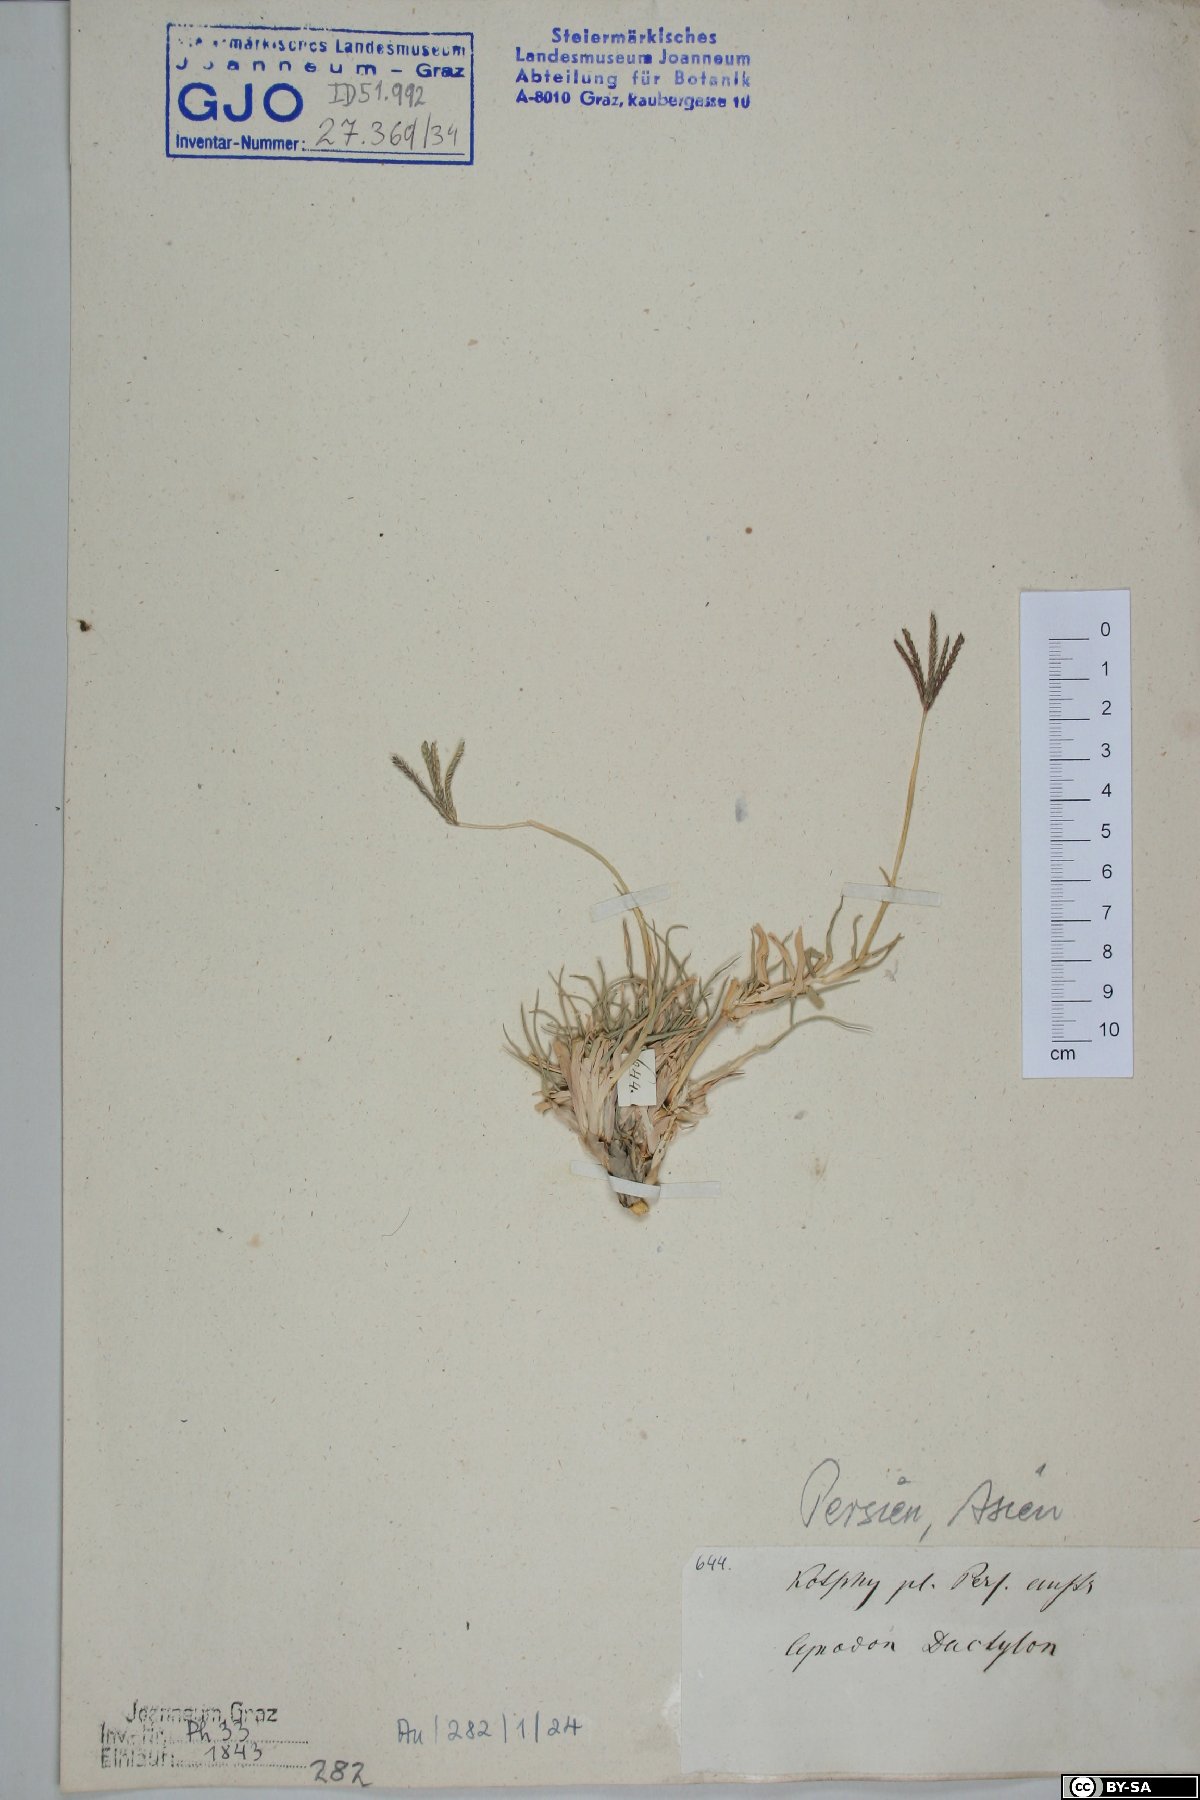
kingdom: Plantae
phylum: Tracheophyta
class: Liliopsida
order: Poales
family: Poaceae
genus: Cynodon
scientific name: Cynodon dactylon
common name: Bermuda grass
